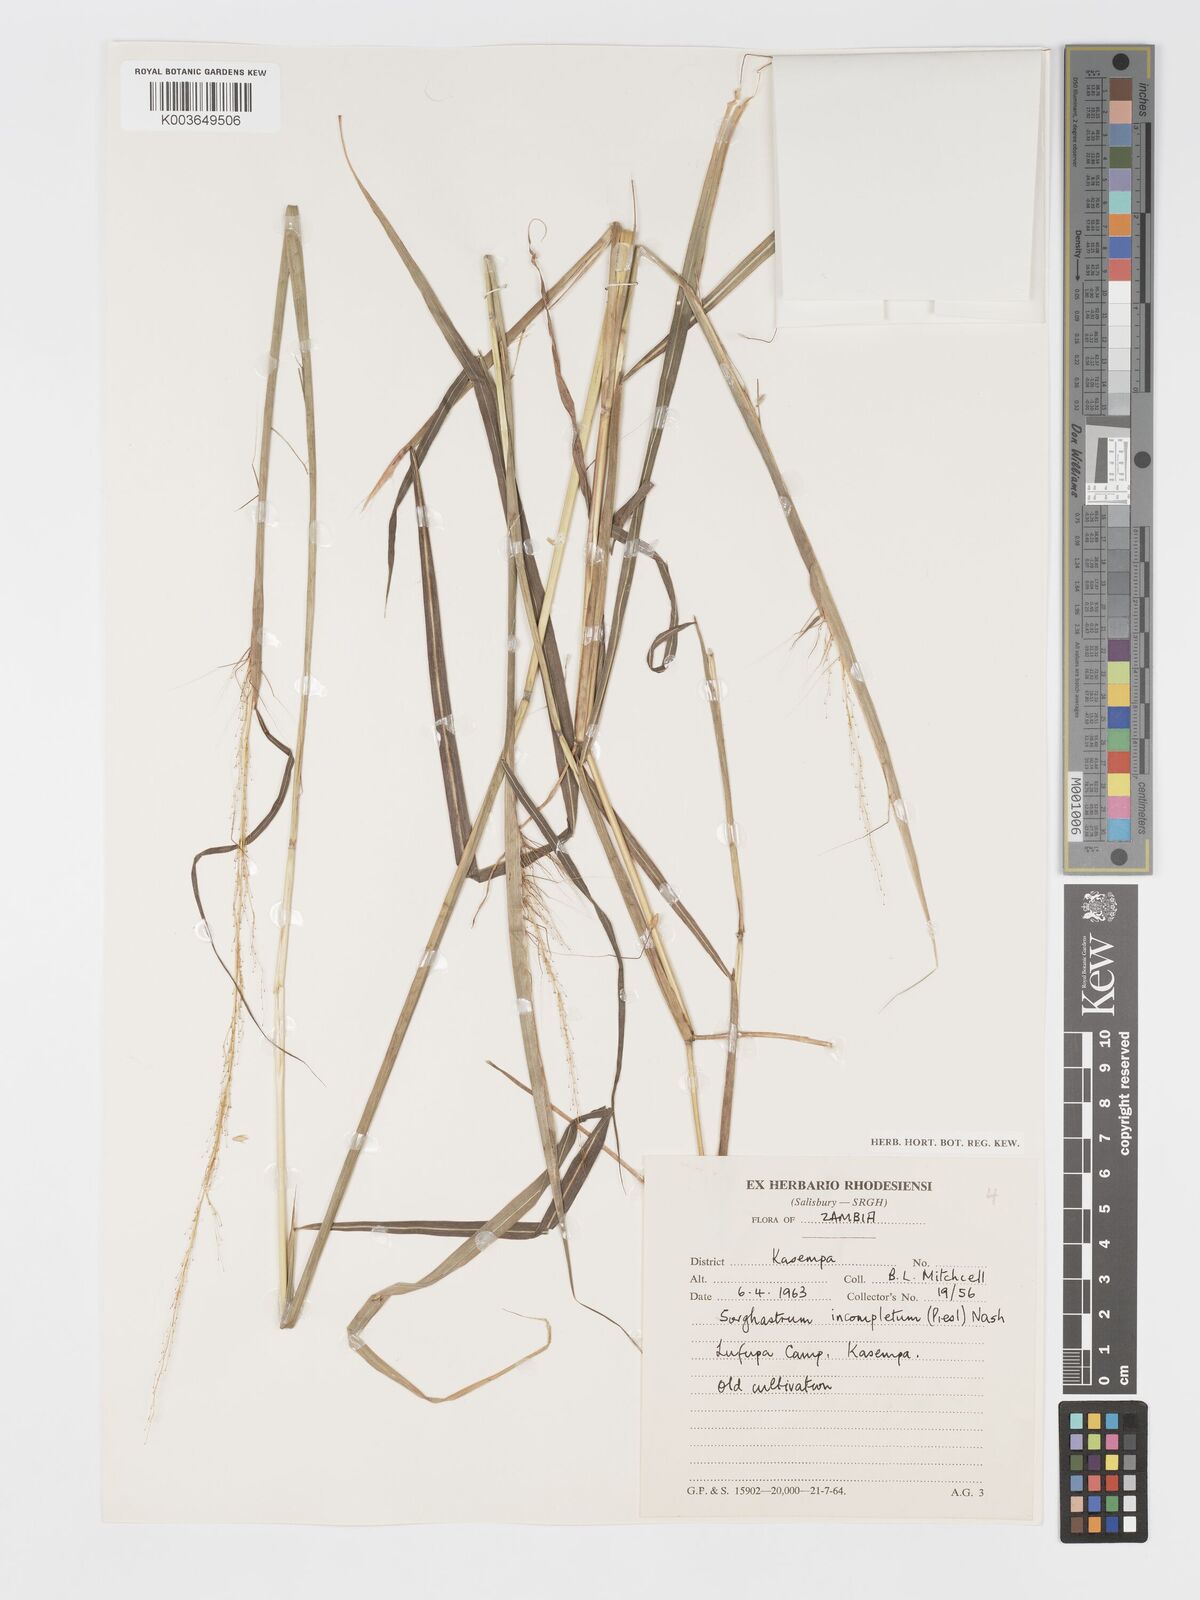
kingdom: Plantae
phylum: Tracheophyta
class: Liliopsida
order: Poales
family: Poaceae
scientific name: Poaceae
